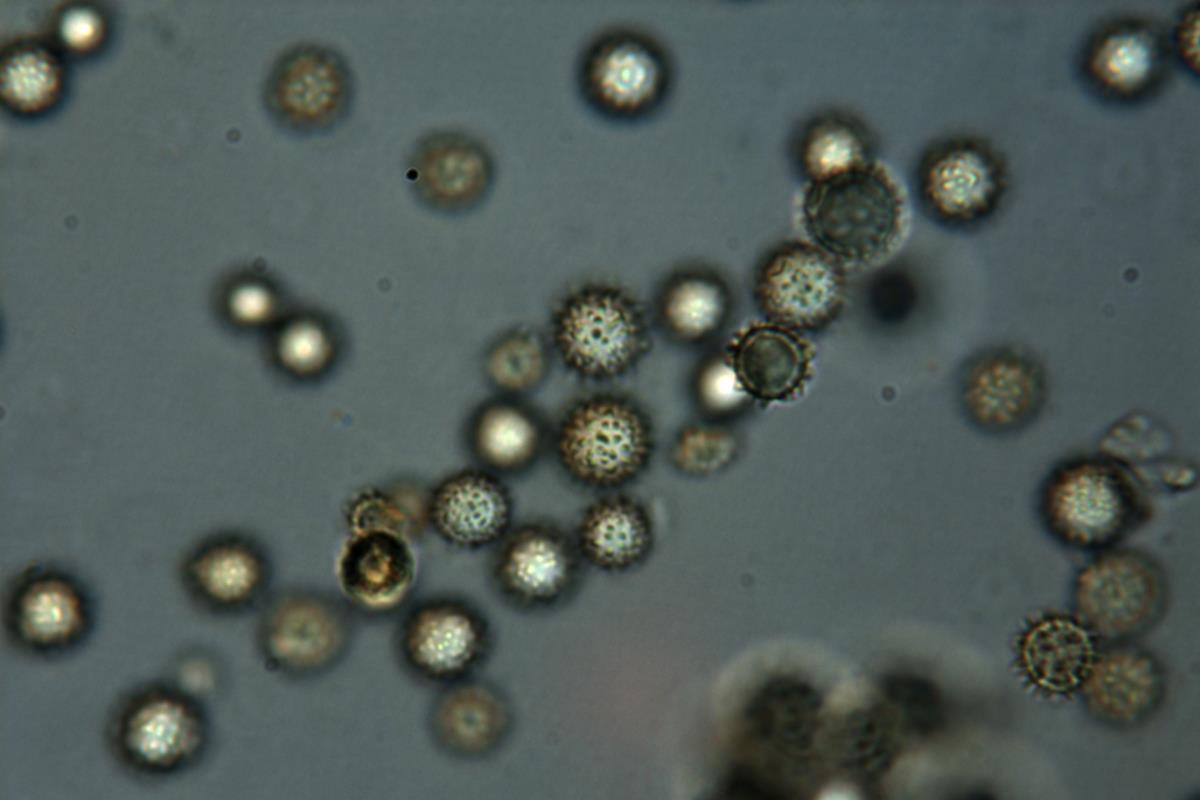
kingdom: Fungi
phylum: Basidiomycota
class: Agaricomycetes
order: Boletales
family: Sclerodermataceae
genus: Pisolithus
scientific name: Pisolithus thermaeus
